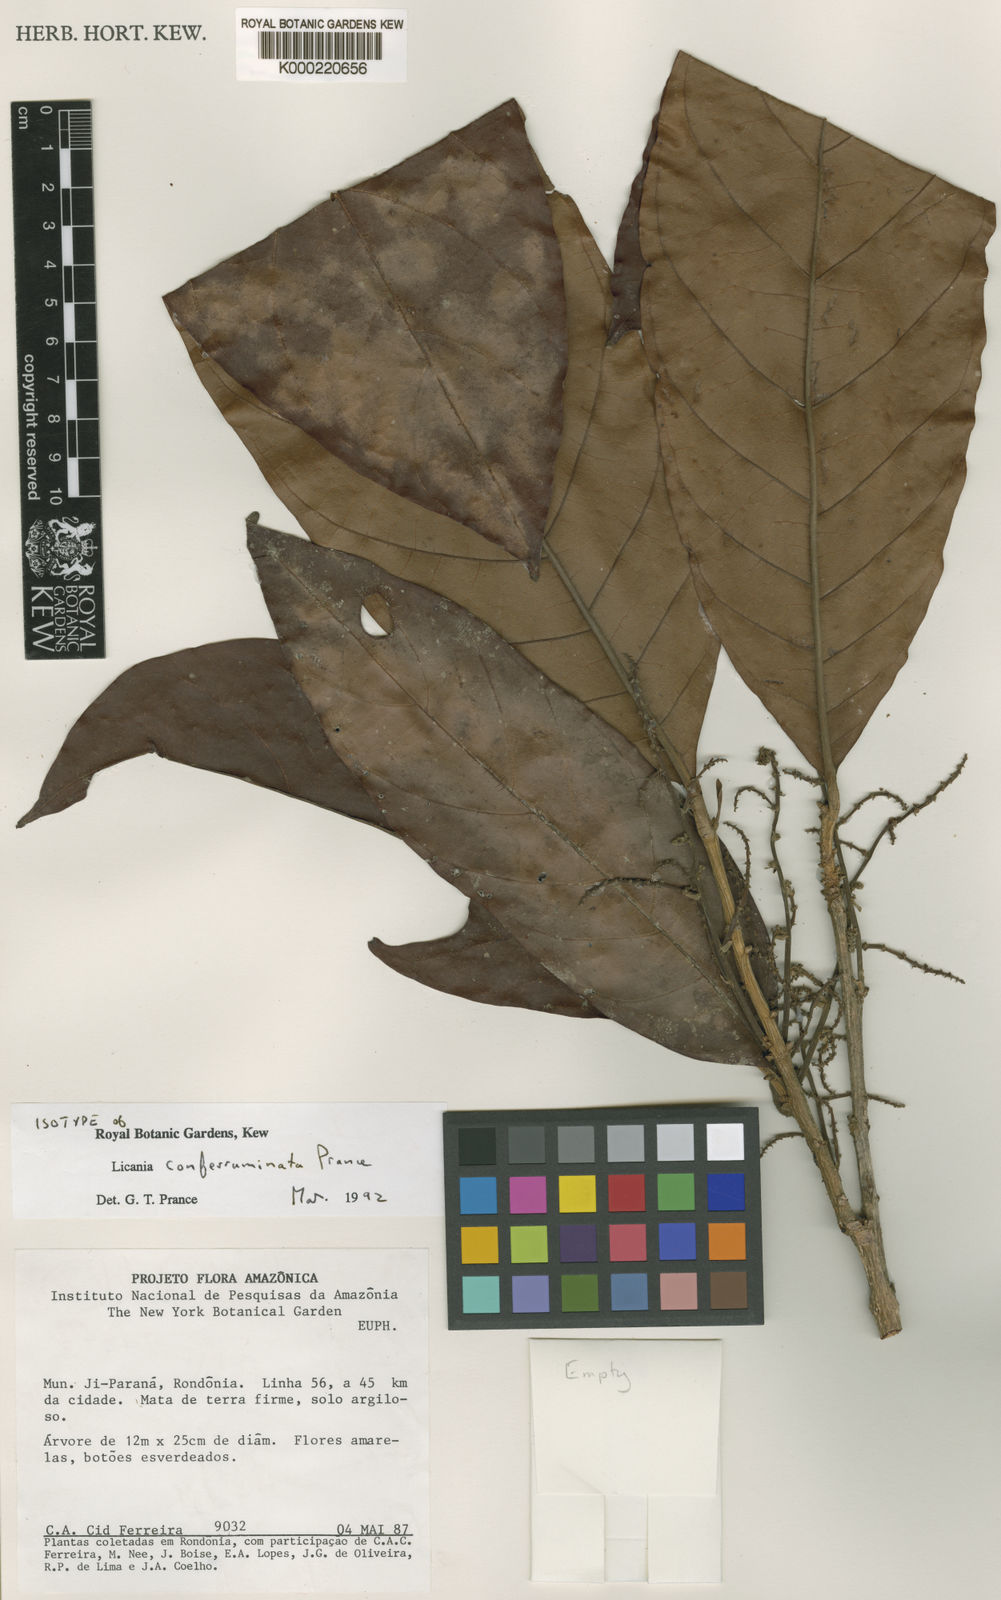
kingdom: Plantae
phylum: Tracheophyta
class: Magnoliopsida
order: Malpighiales
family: Chrysobalanaceae
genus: Hymenopus
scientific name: Hymenopus conferruminatus
